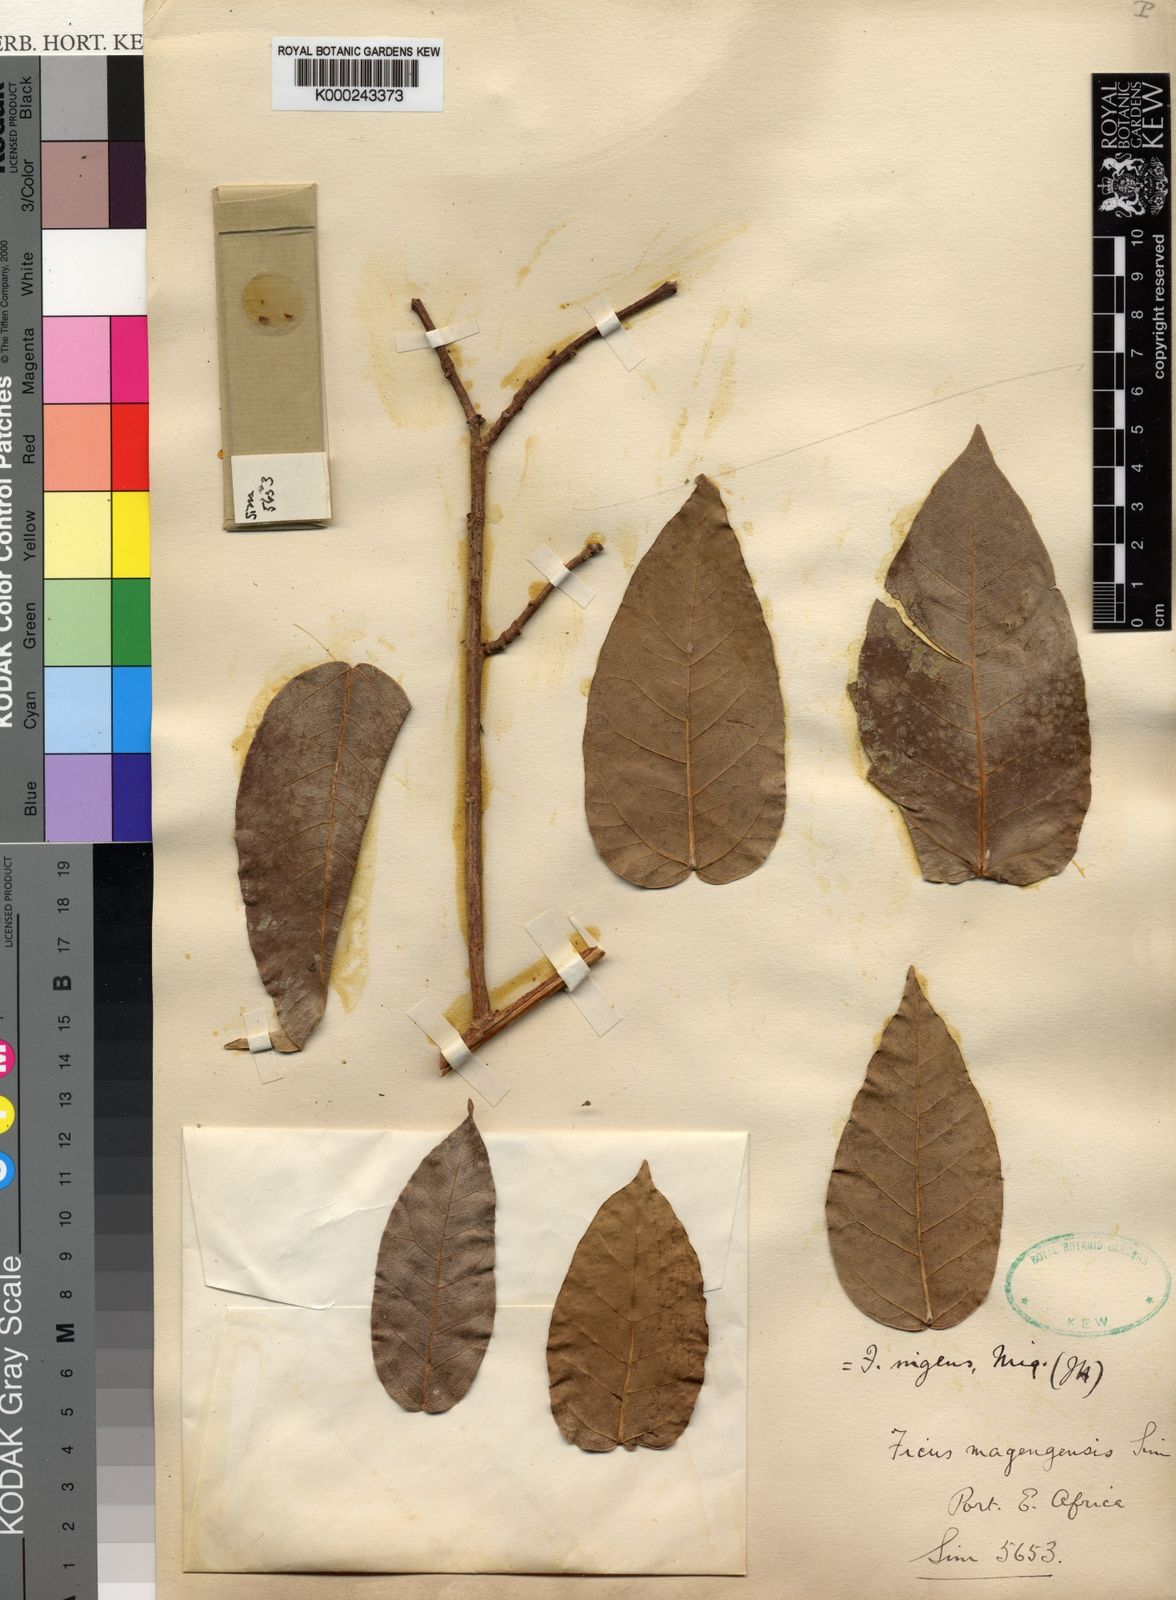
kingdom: Plantae
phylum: Tracheophyta
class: Magnoliopsida
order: Rosales
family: Moraceae
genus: Ficus
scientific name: Ficus ingens
